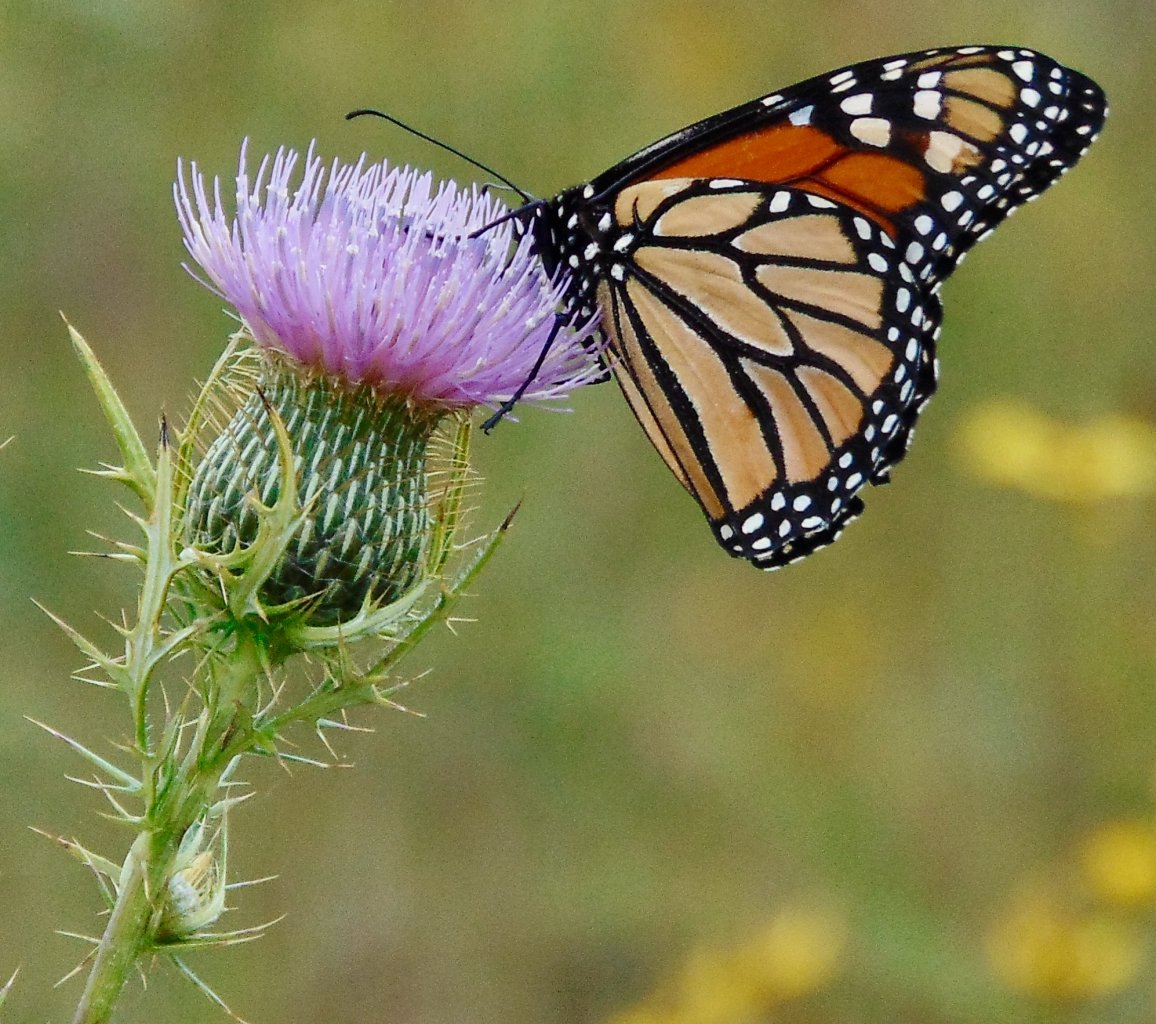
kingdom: Animalia
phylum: Arthropoda
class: Insecta
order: Lepidoptera
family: Nymphalidae
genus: Danaus
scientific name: Danaus plexippus
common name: Monarch
